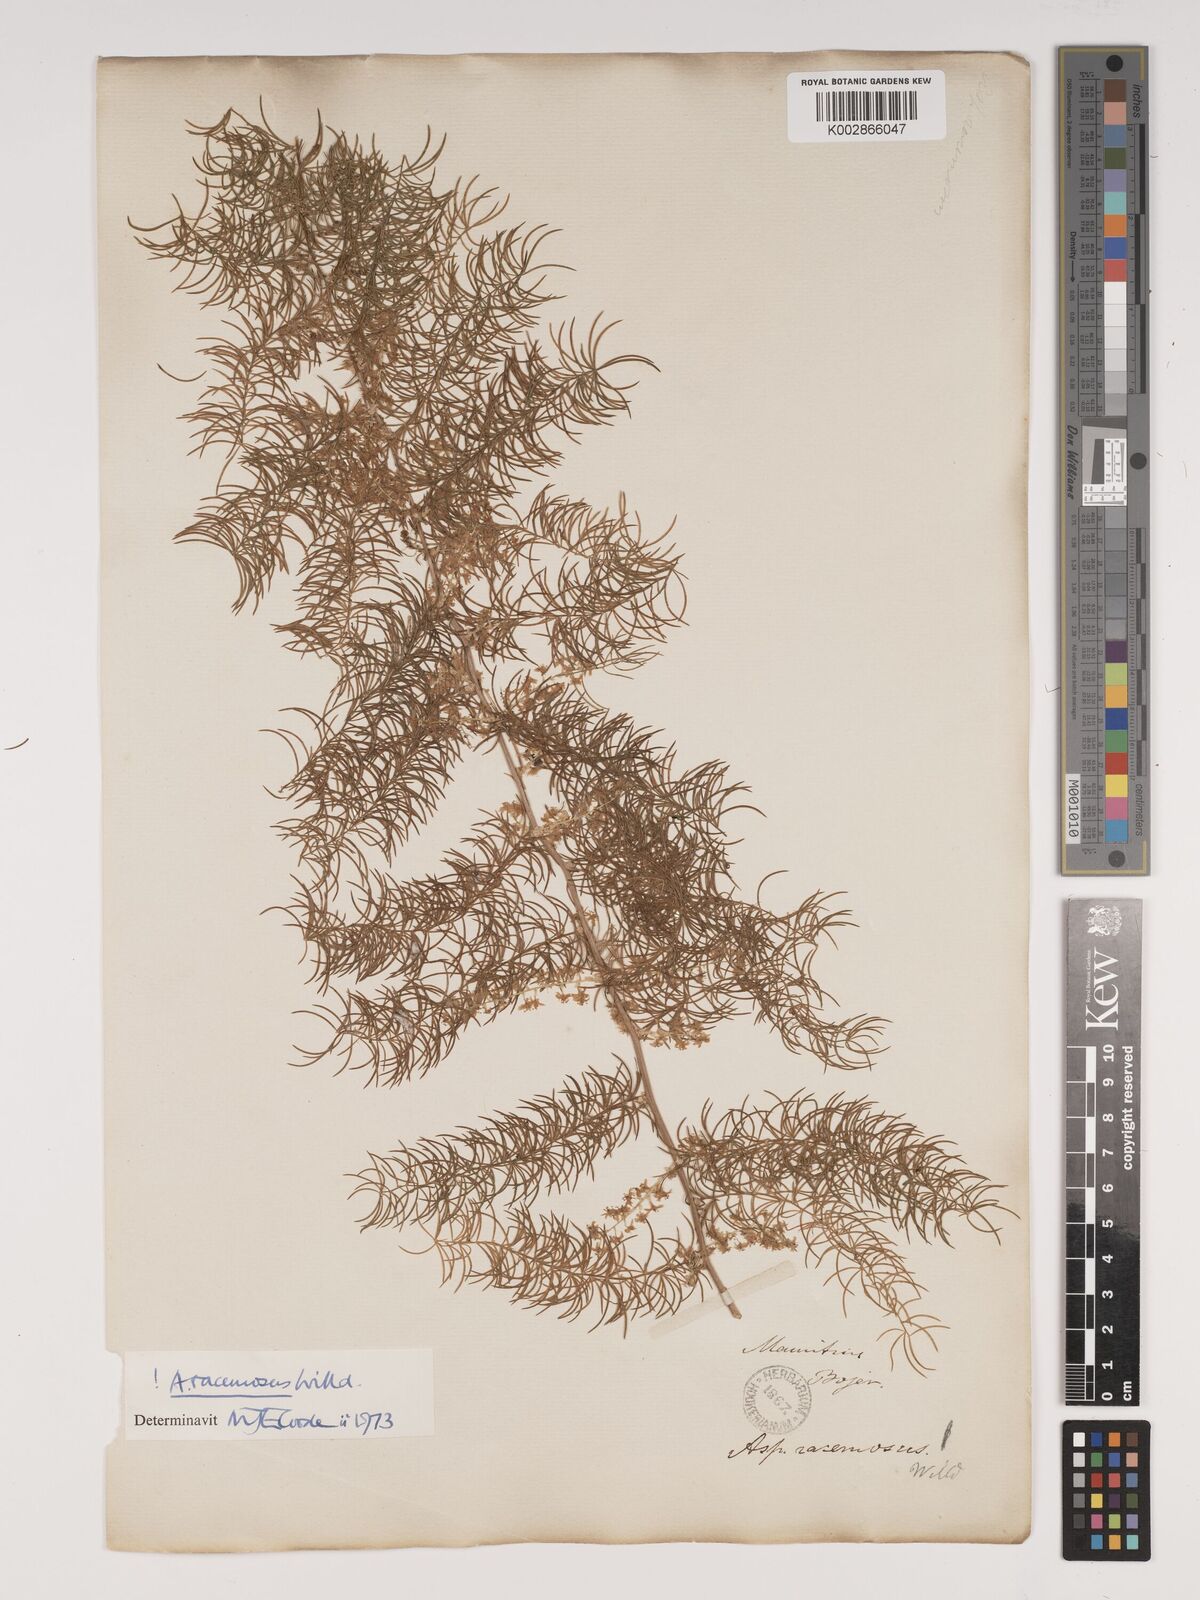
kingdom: Plantae
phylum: Tracheophyta
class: Liliopsida
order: Asparagales
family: Asparagaceae
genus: Asparagus
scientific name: Asparagus racemosus
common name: Asparagus-fern
